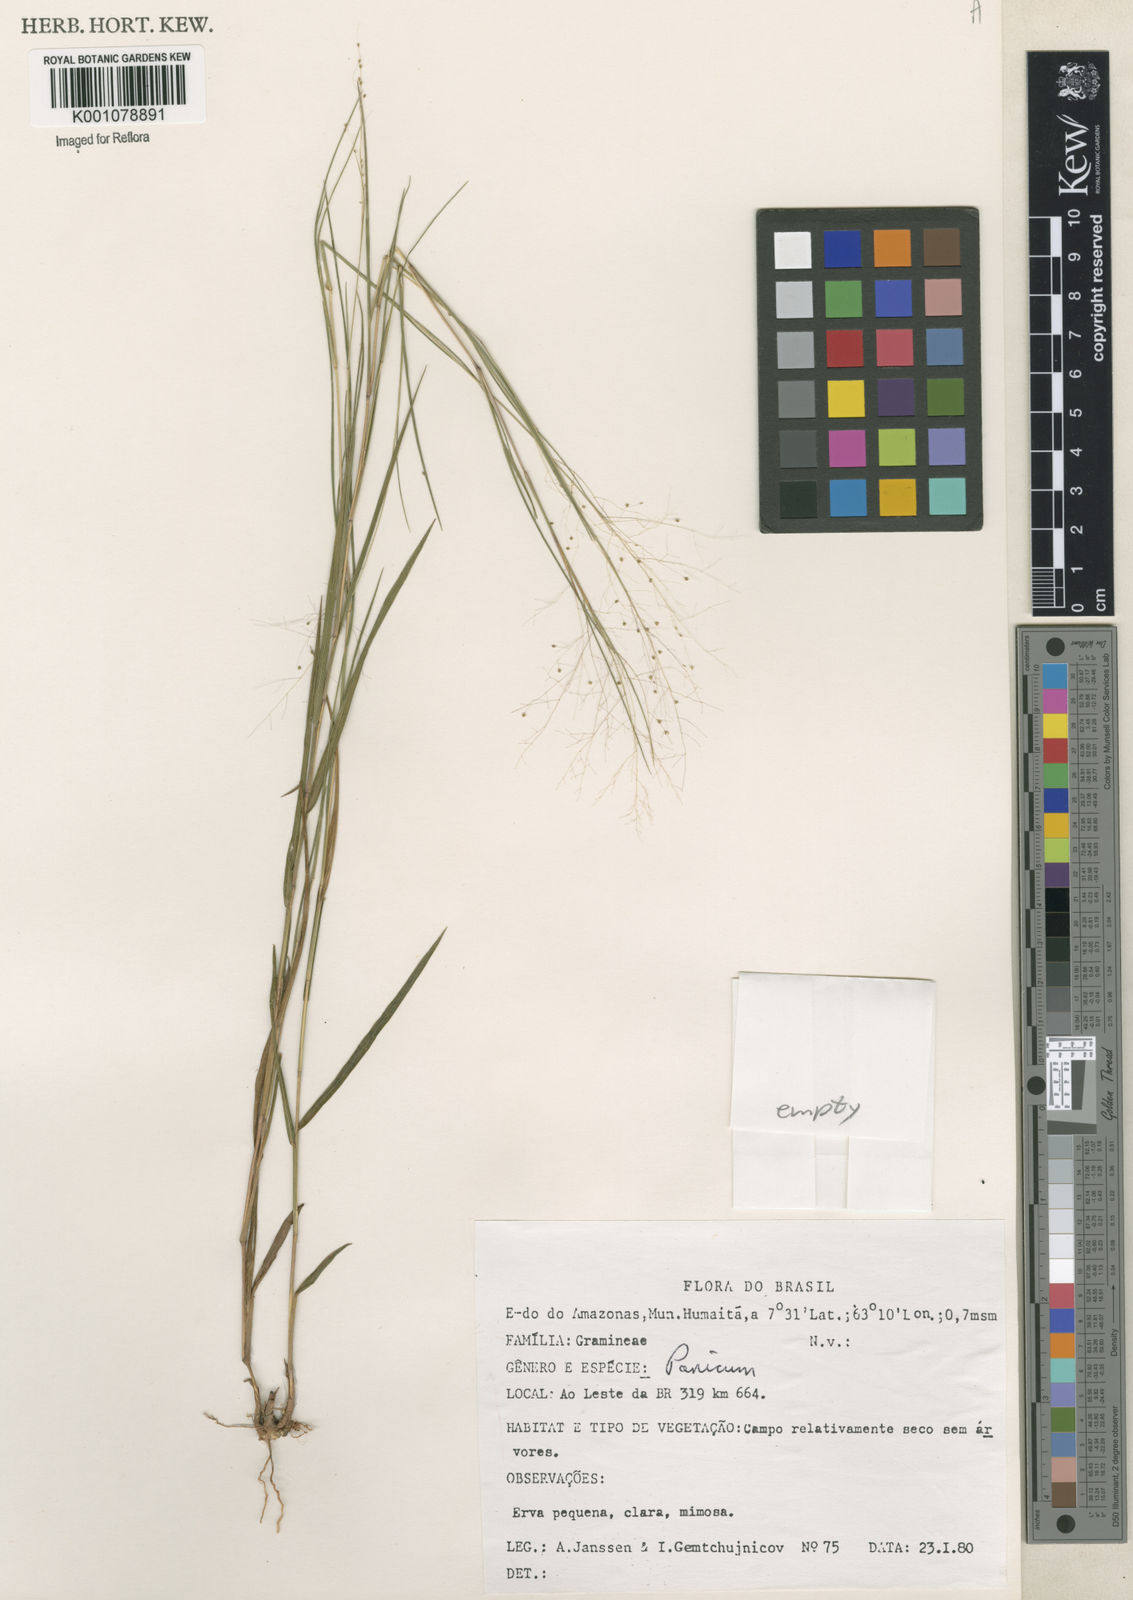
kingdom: Plantae
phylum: Tracheophyta
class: Liliopsida
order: Poales
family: Poaceae
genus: Trichanthecium
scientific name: Trichanthecium cyanescens
